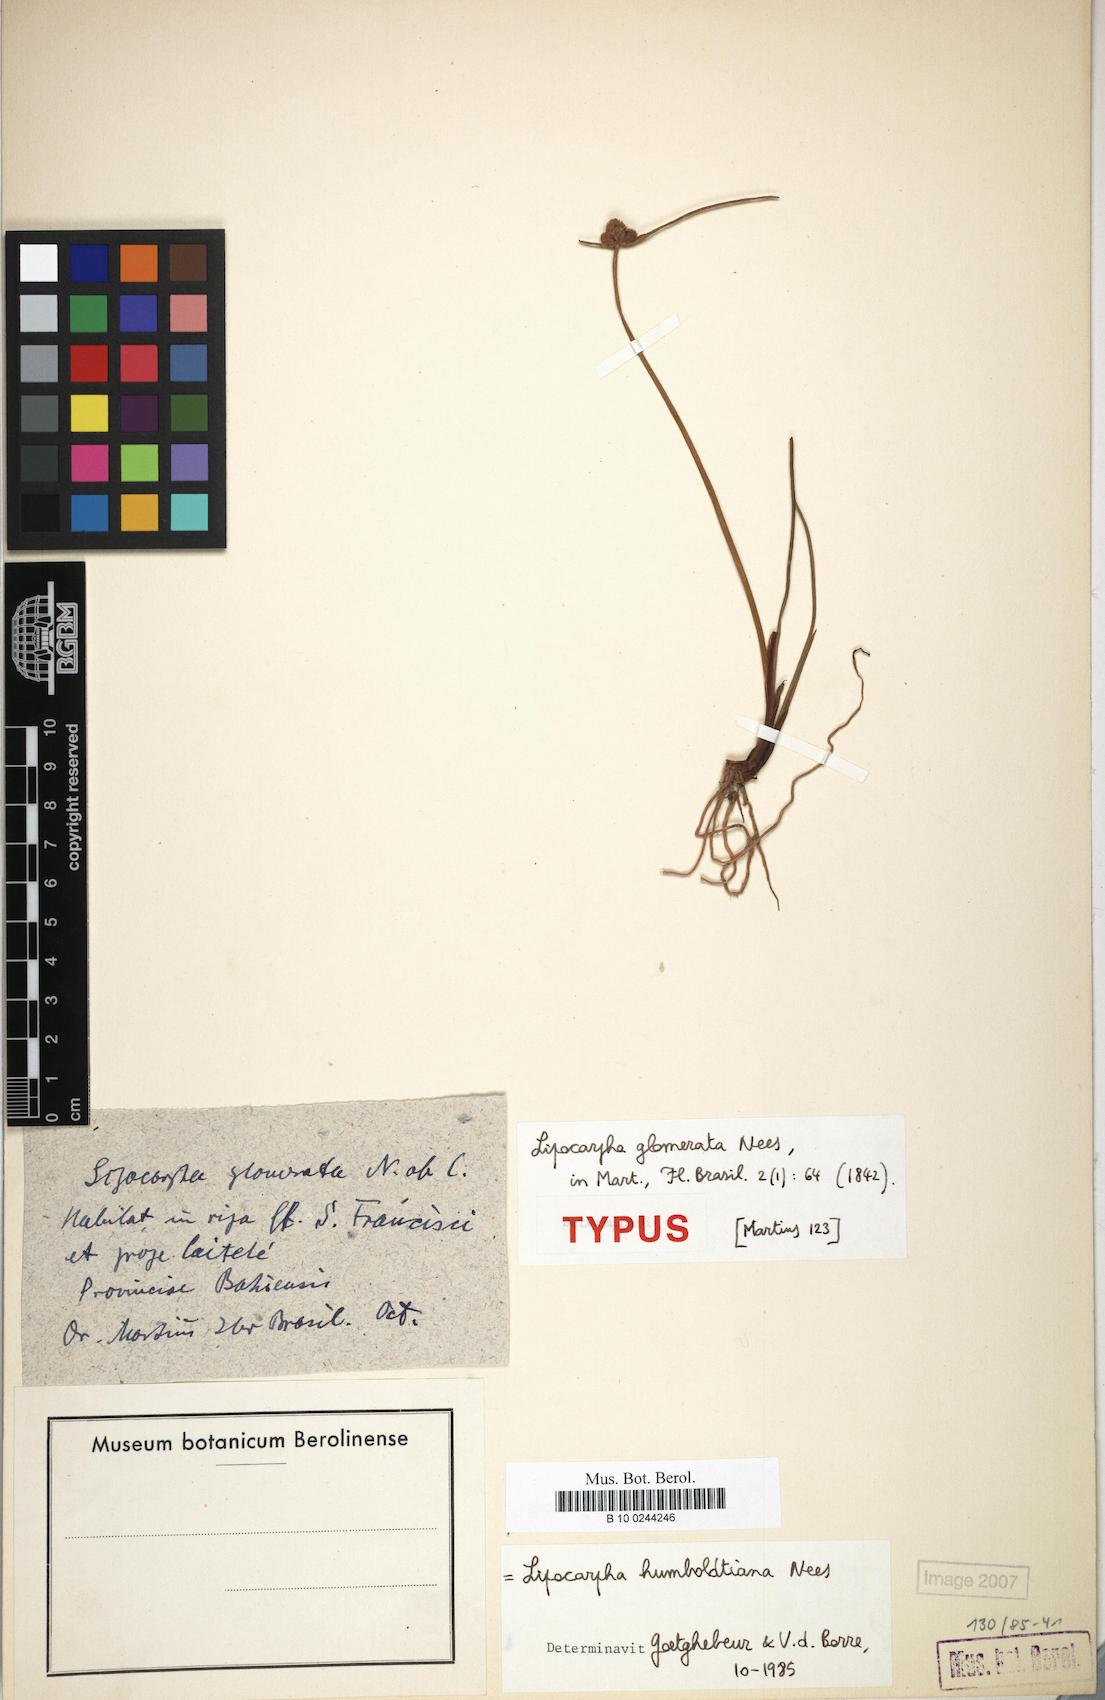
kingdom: Plantae
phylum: Tracheophyta
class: Liliopsida
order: Poales
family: Cyperaceae
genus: Cyperus
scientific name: Cyperus sellowianus
